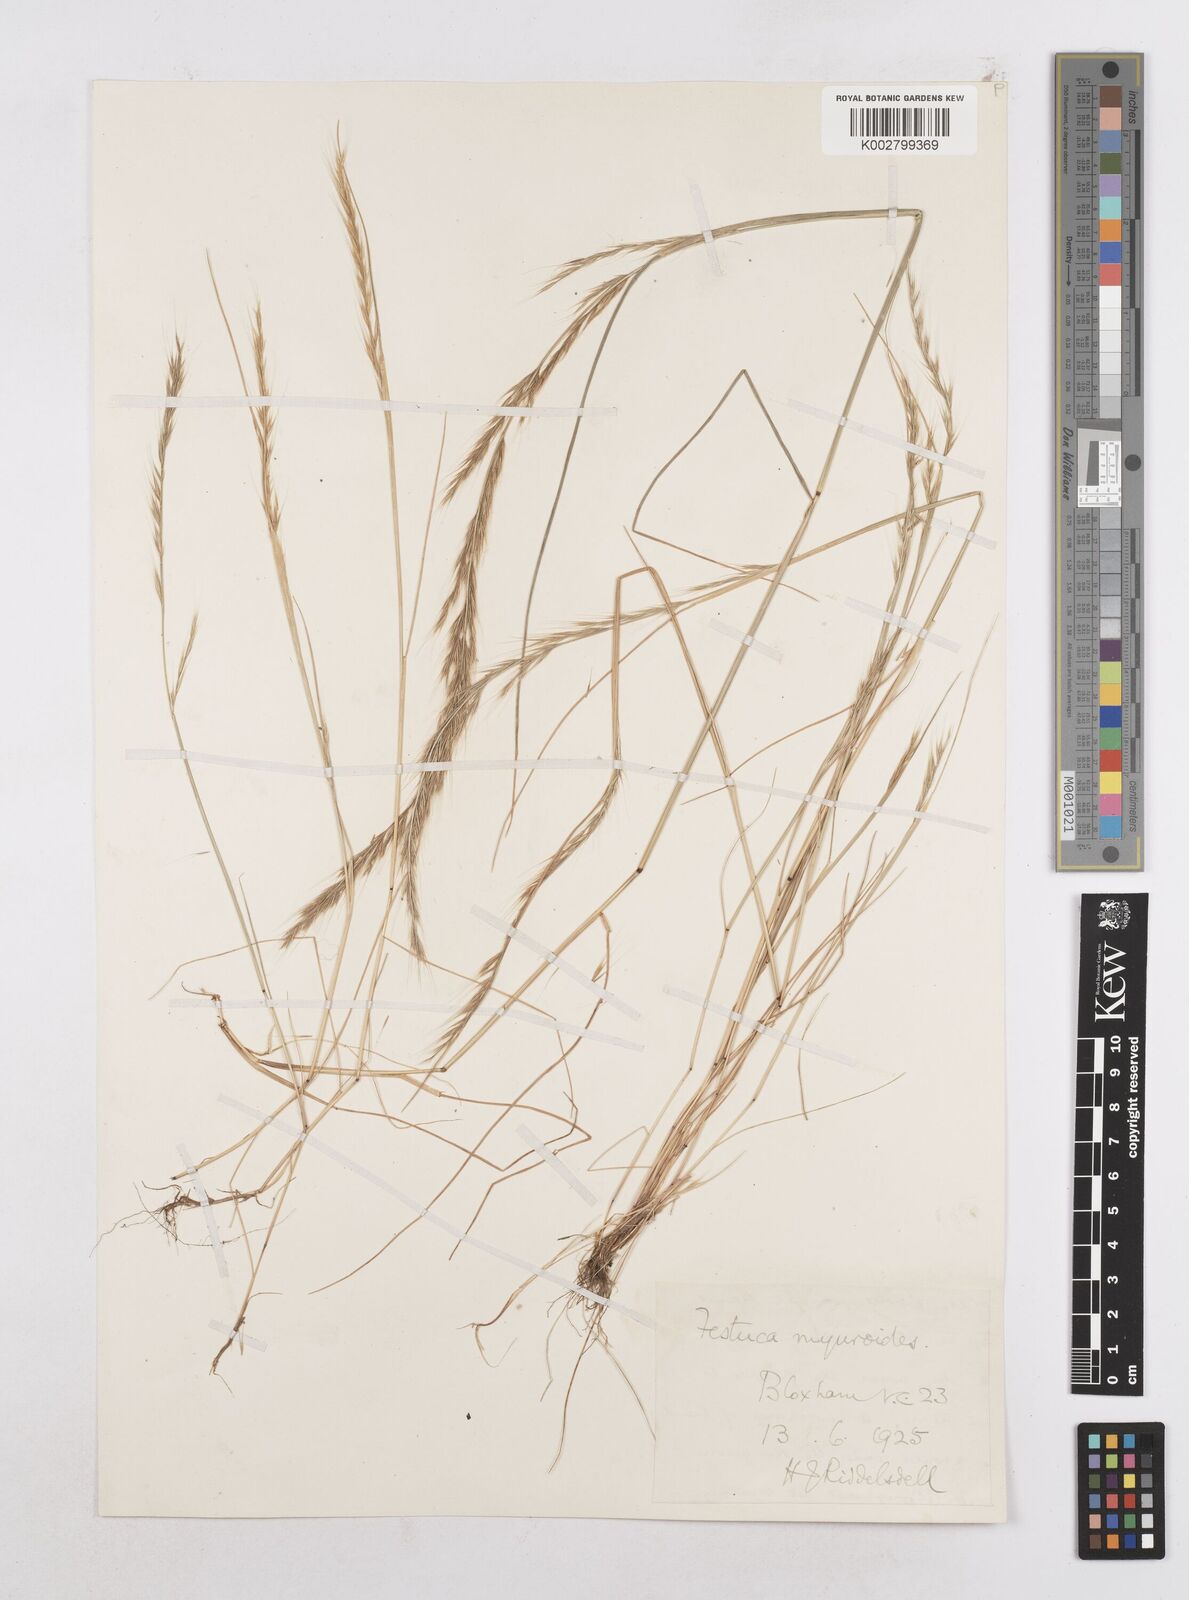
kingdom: Plantae
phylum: Tracheophyta
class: Liliopsida
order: Poales
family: Poaceae
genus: Festuca
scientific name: Festuca myuros
